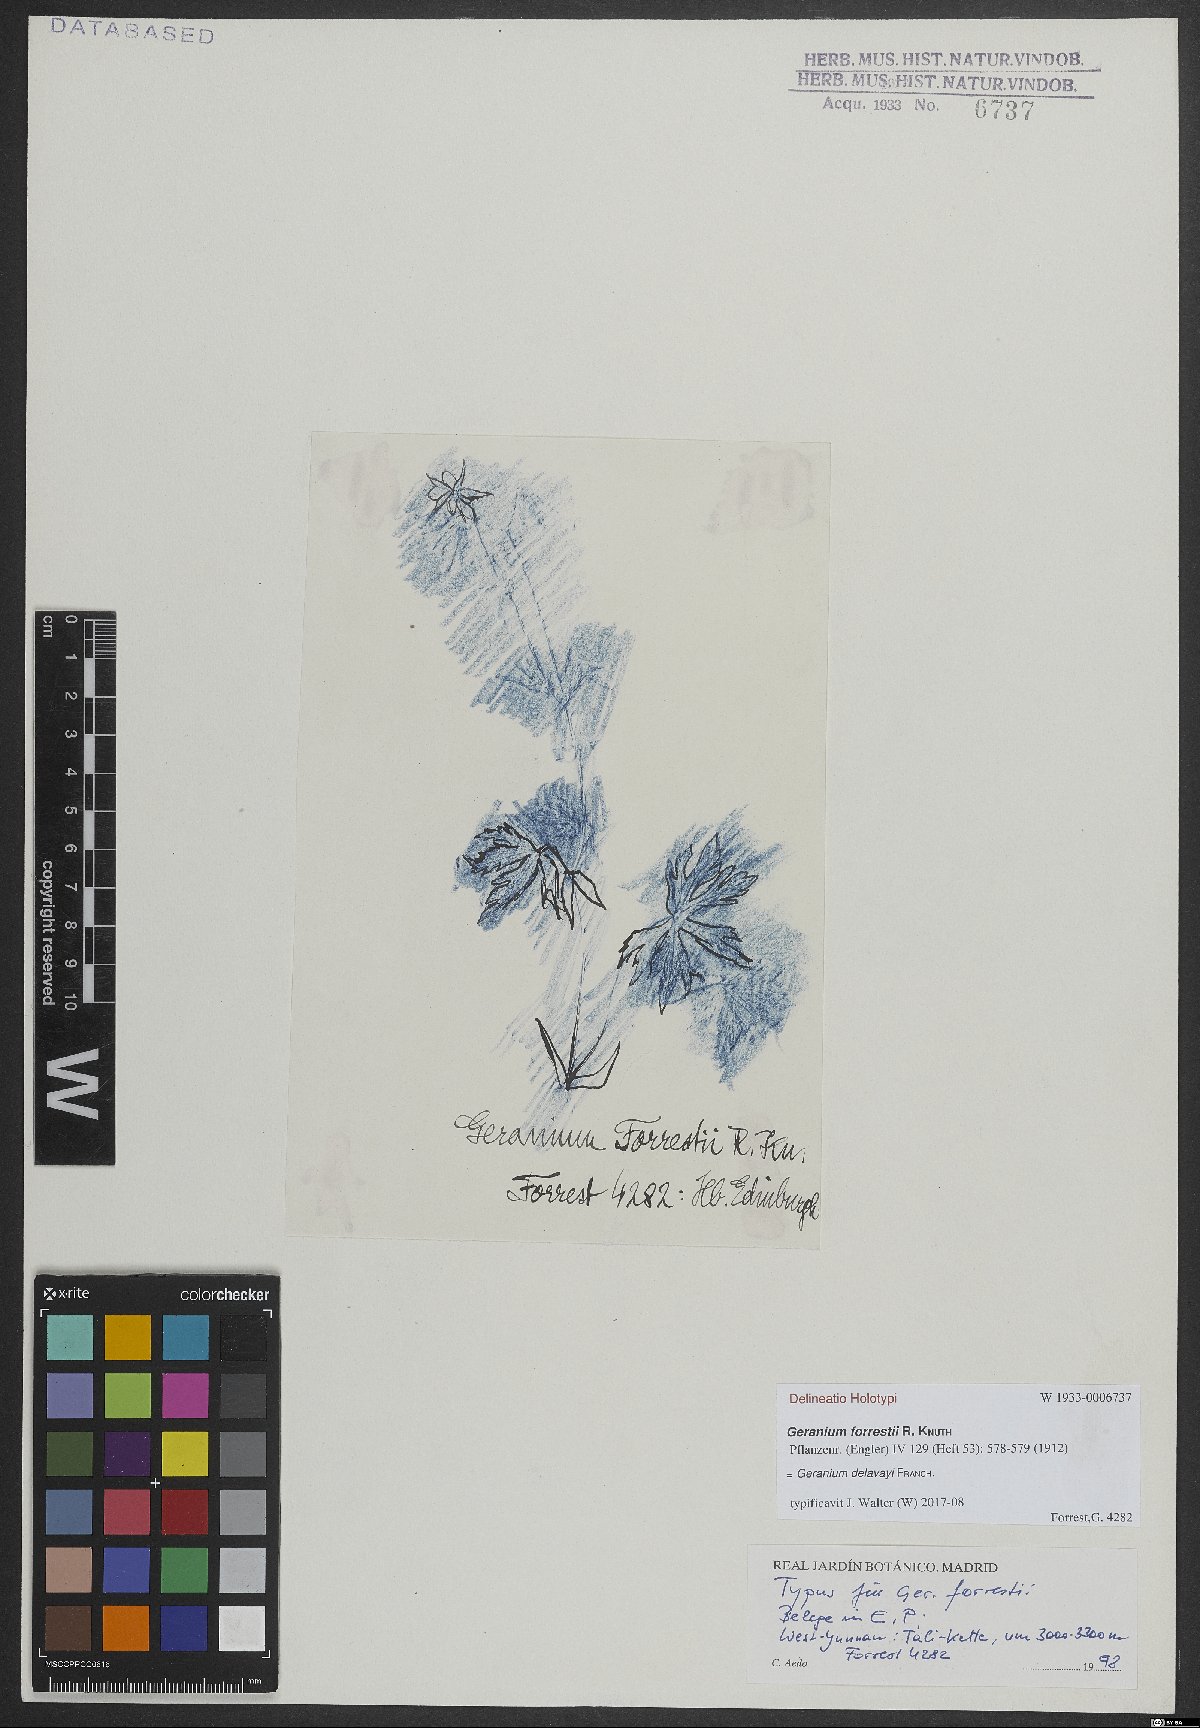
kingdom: Plantae
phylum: Tracheophyta
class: Magnoliopsida
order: Geraniales
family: Geraniaceae
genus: Geranium
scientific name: Geranium delavayi
